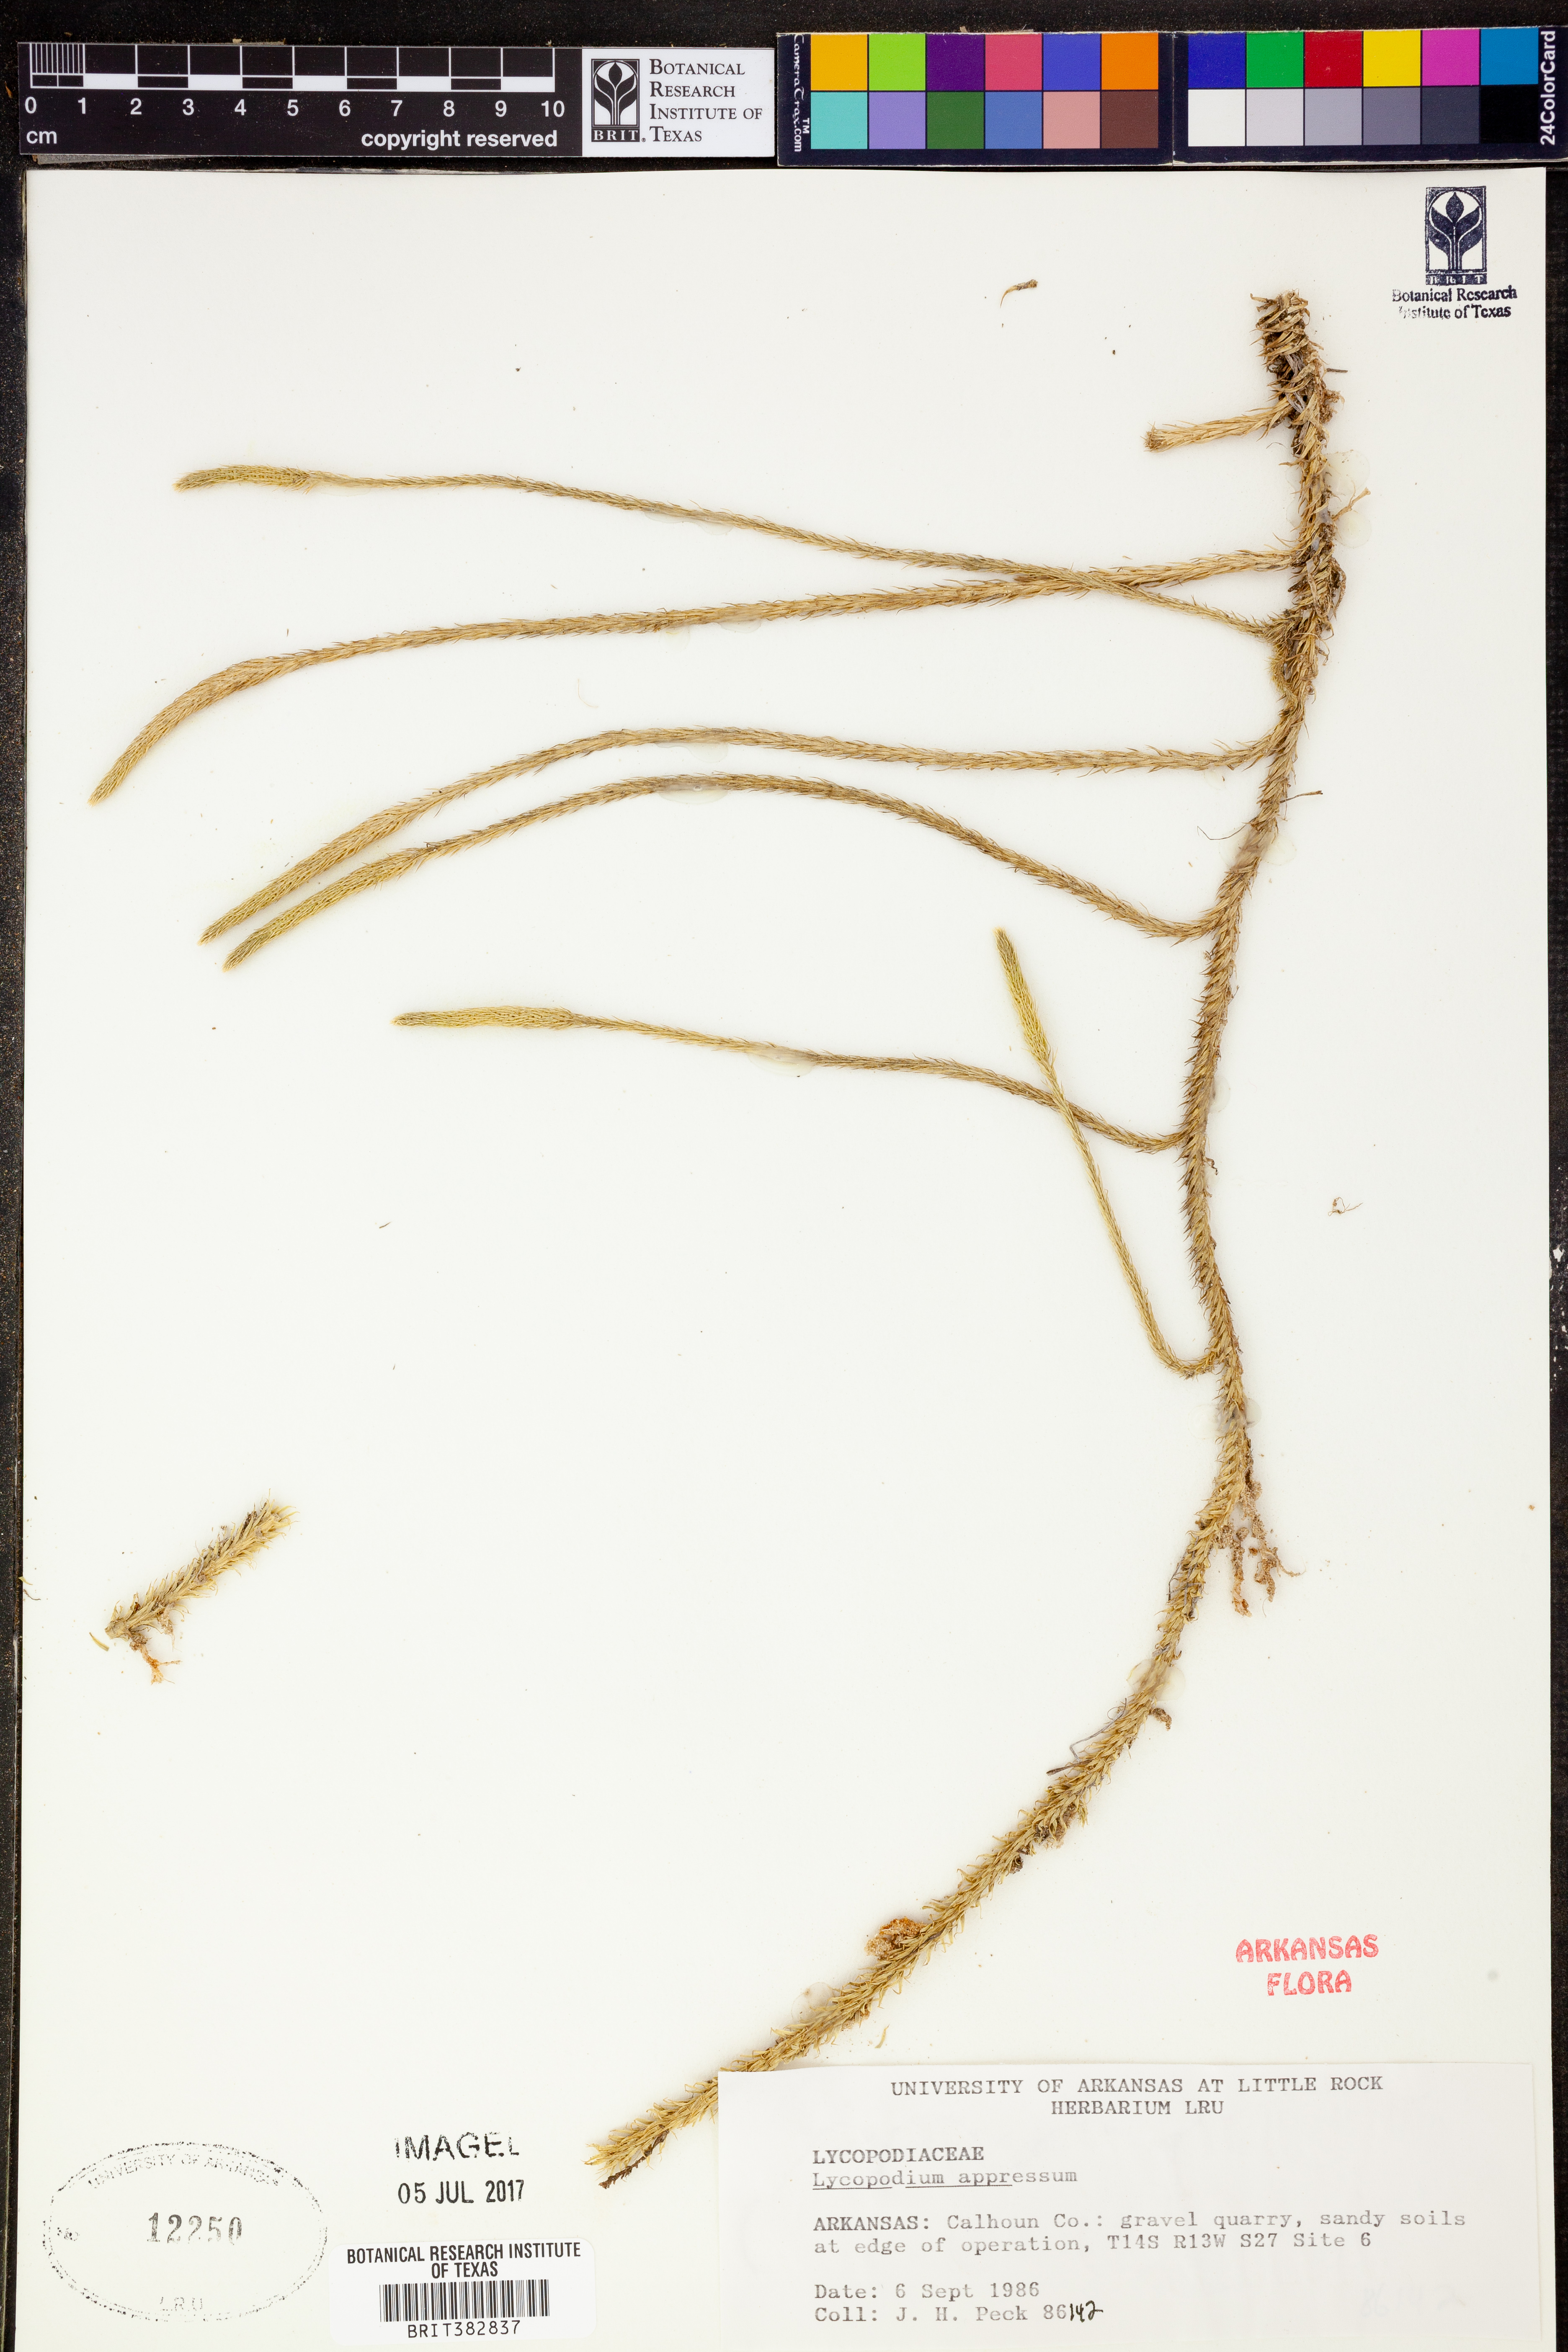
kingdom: Plantae
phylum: Tracheophyta
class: Lycopodiopsida
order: Lycopodiales
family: Lycopodiaceae
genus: Lycopodiella
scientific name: Lycopodiella appressa
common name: Appressed bog clubmoss
